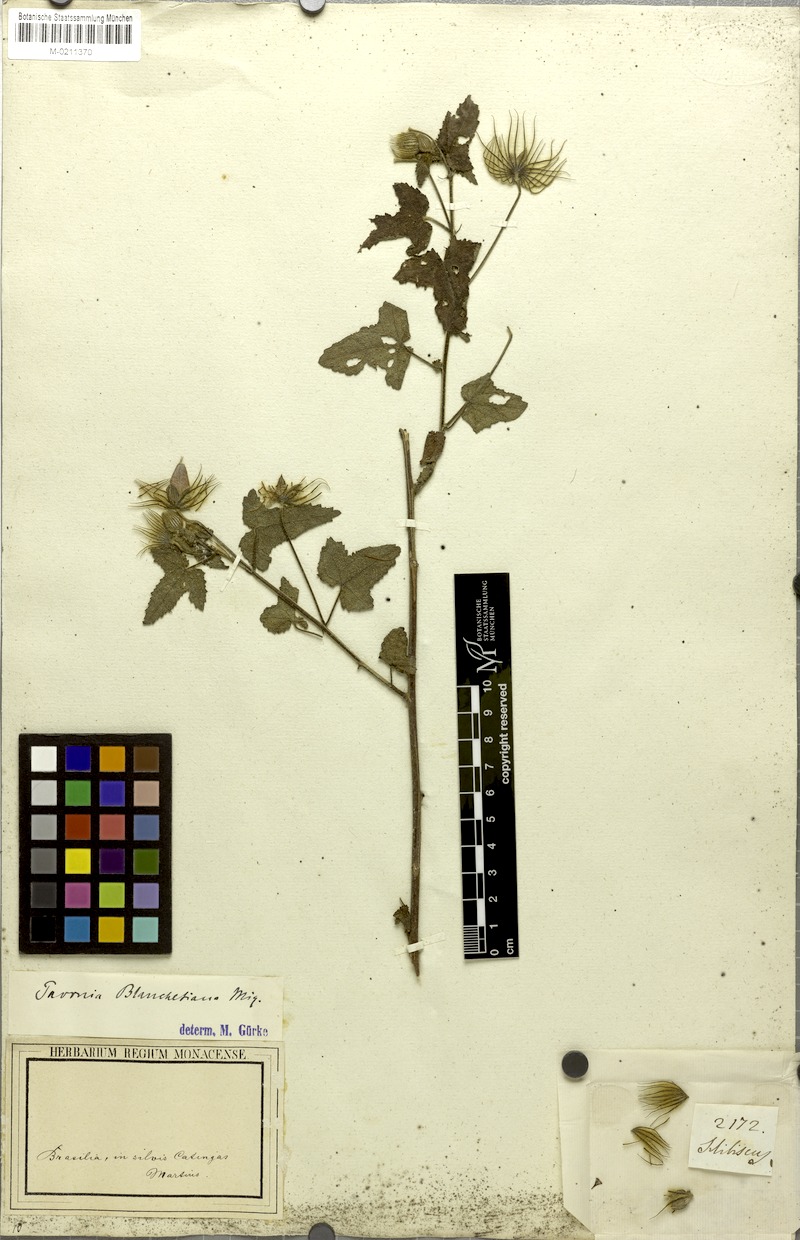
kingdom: Plantae
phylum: Tracheophyta
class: Magnoliopsida
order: Malvales
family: Malvaceae
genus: Pavonia
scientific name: Pavonia blanchetiana
